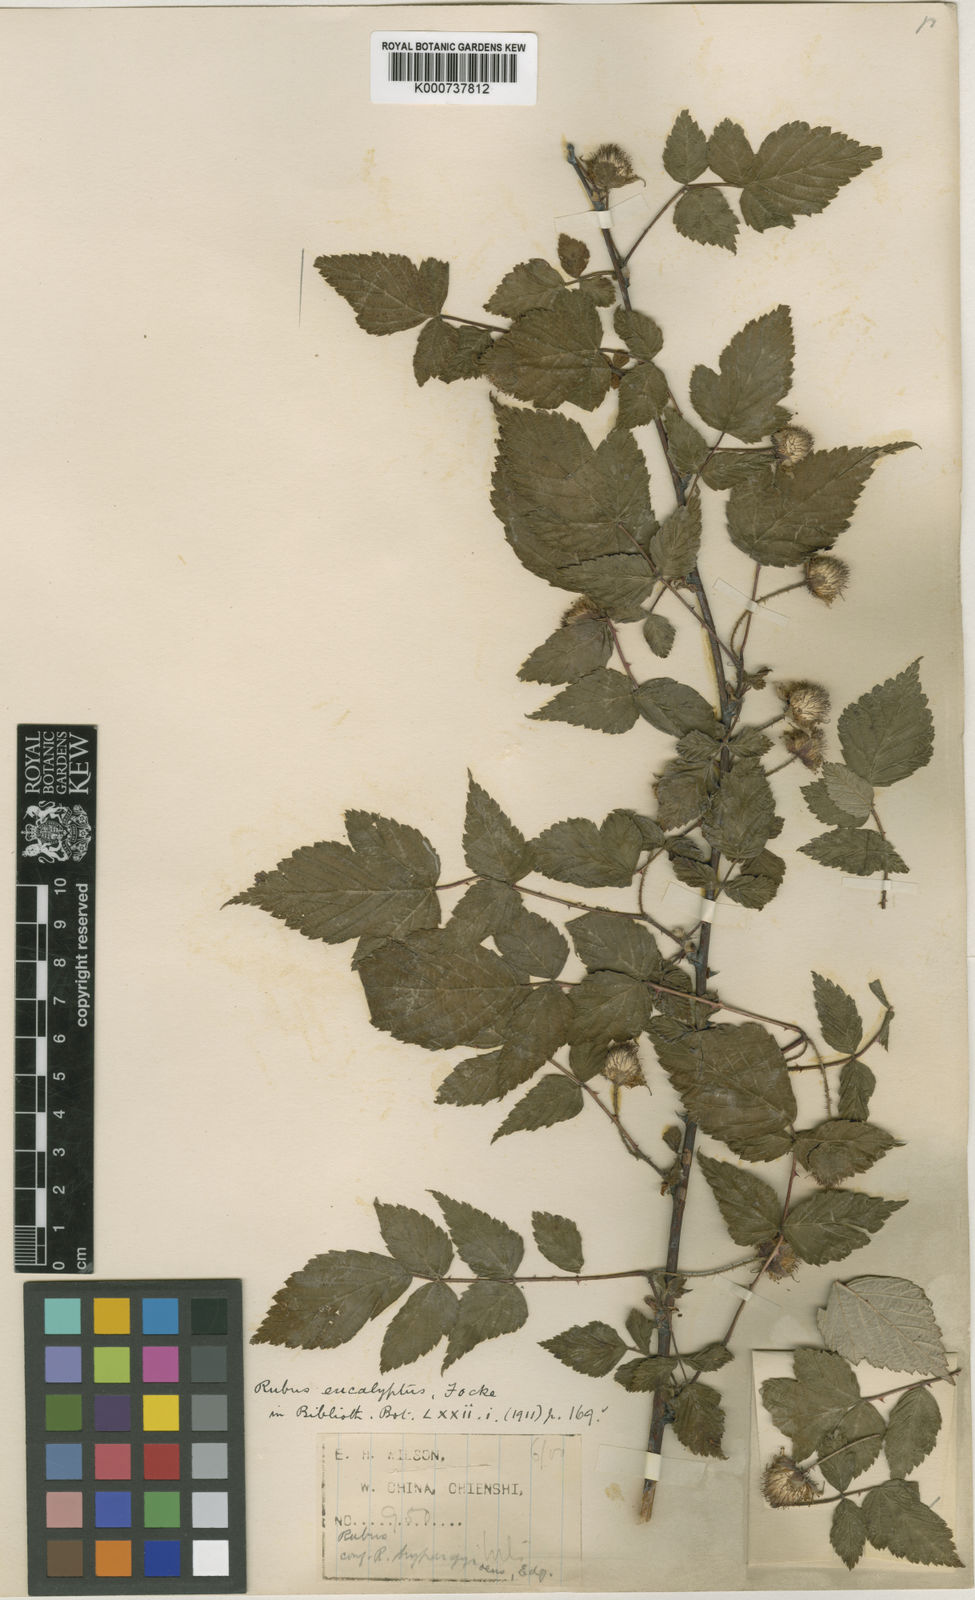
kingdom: Plantae
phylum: Tracheophyta
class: Magnoliopsida
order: Rosales
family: Rosaceae
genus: Rubus
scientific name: Rubus eucalyptus
